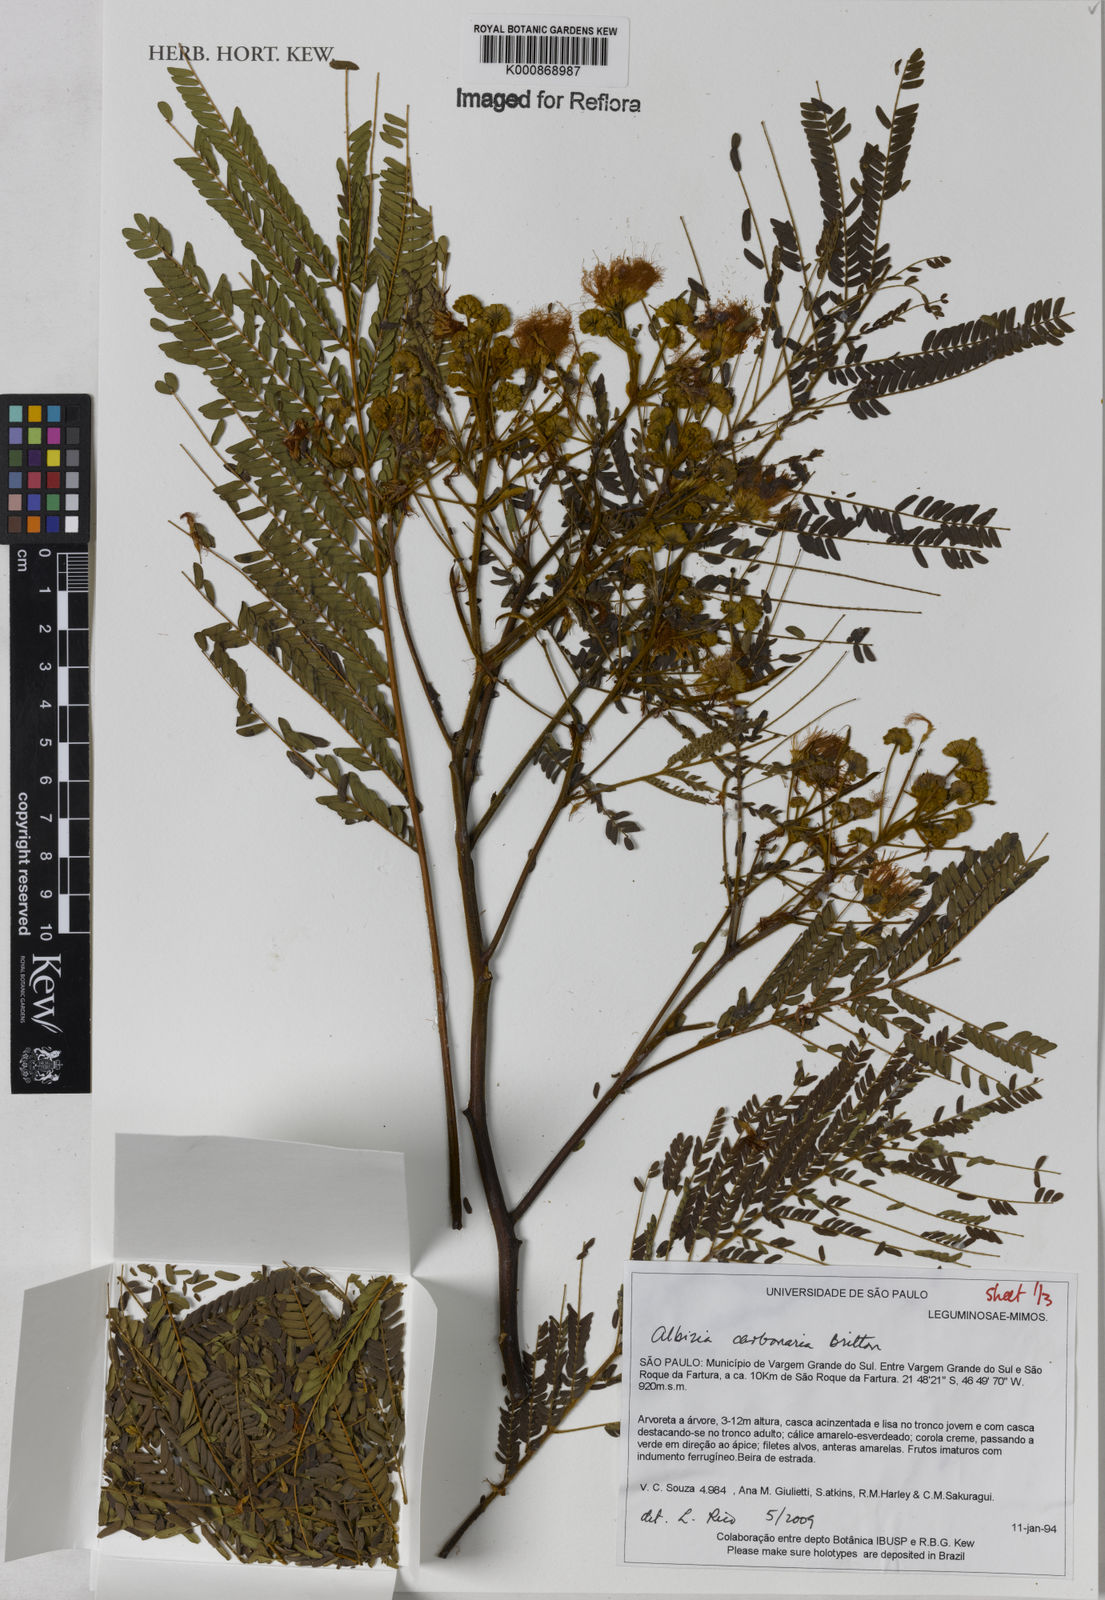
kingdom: Plantae
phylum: Tracheophyta
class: Magnoliopsida
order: Fabales
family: Fabaceae
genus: Albizia
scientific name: Albizia carbonaria
